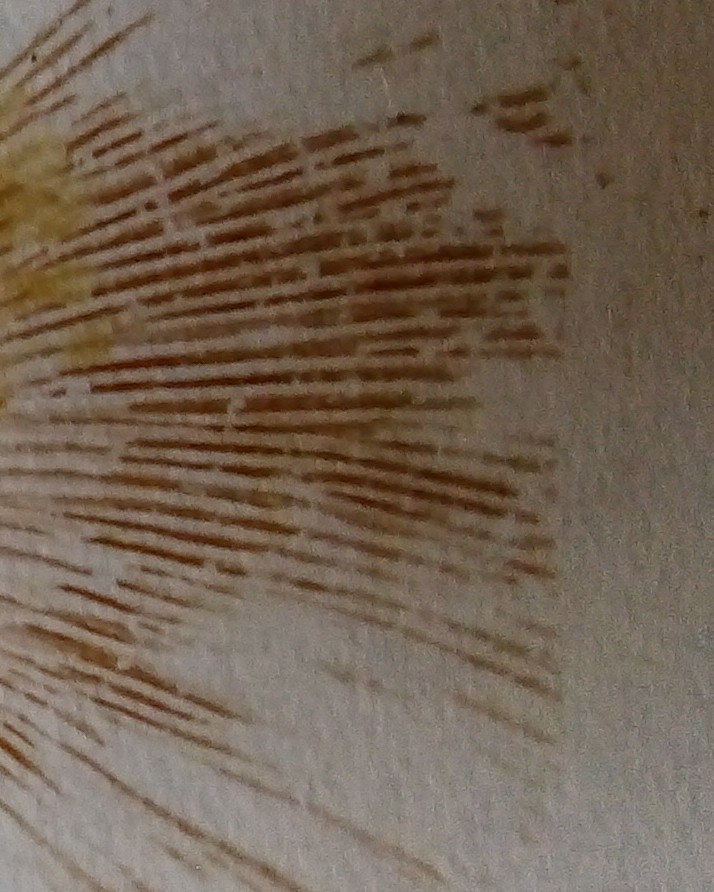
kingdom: Fungi
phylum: Basidiomycota
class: Agaricomycetes
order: Boletales
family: Paxillaceae
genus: Paxillus
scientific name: Paxillus involutus
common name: almindelig netbladhat
